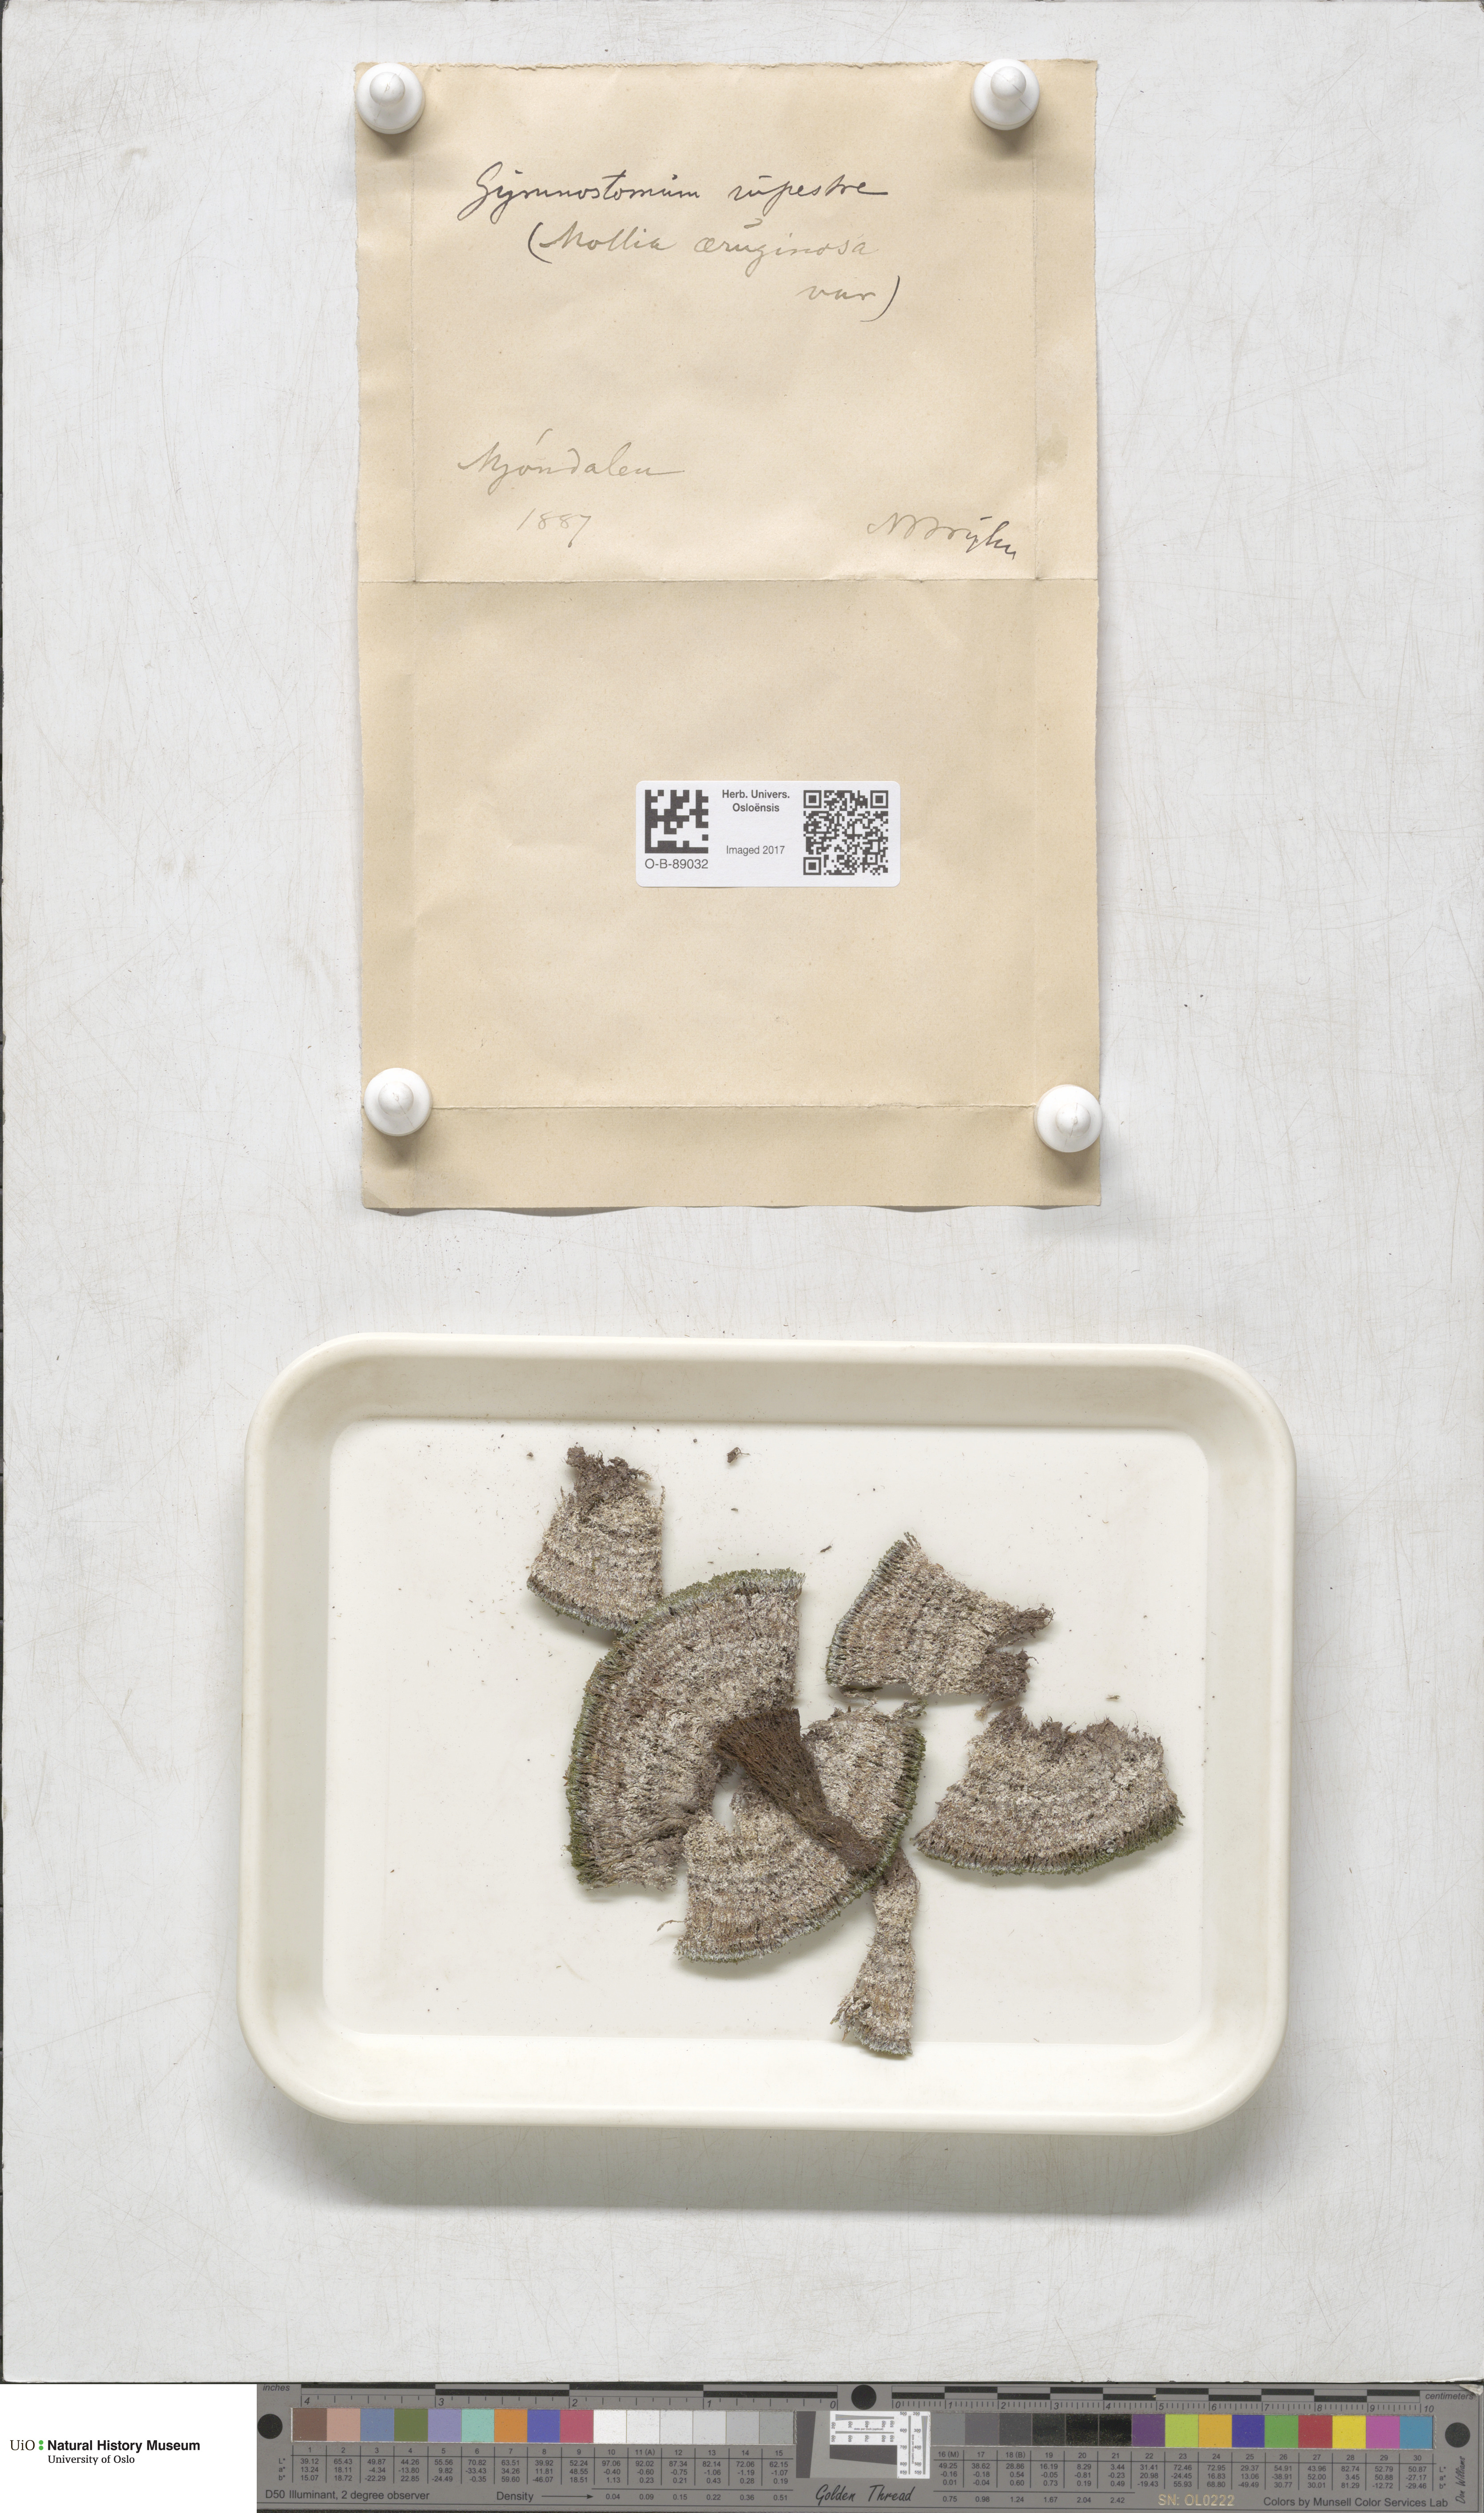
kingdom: Plantae
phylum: Bryophyta
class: Bryopsida
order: Pottiales
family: Pottiaceae
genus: Gymnostomum
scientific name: Gymnostomum aeruginosum
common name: Verdigris tufa-moss
